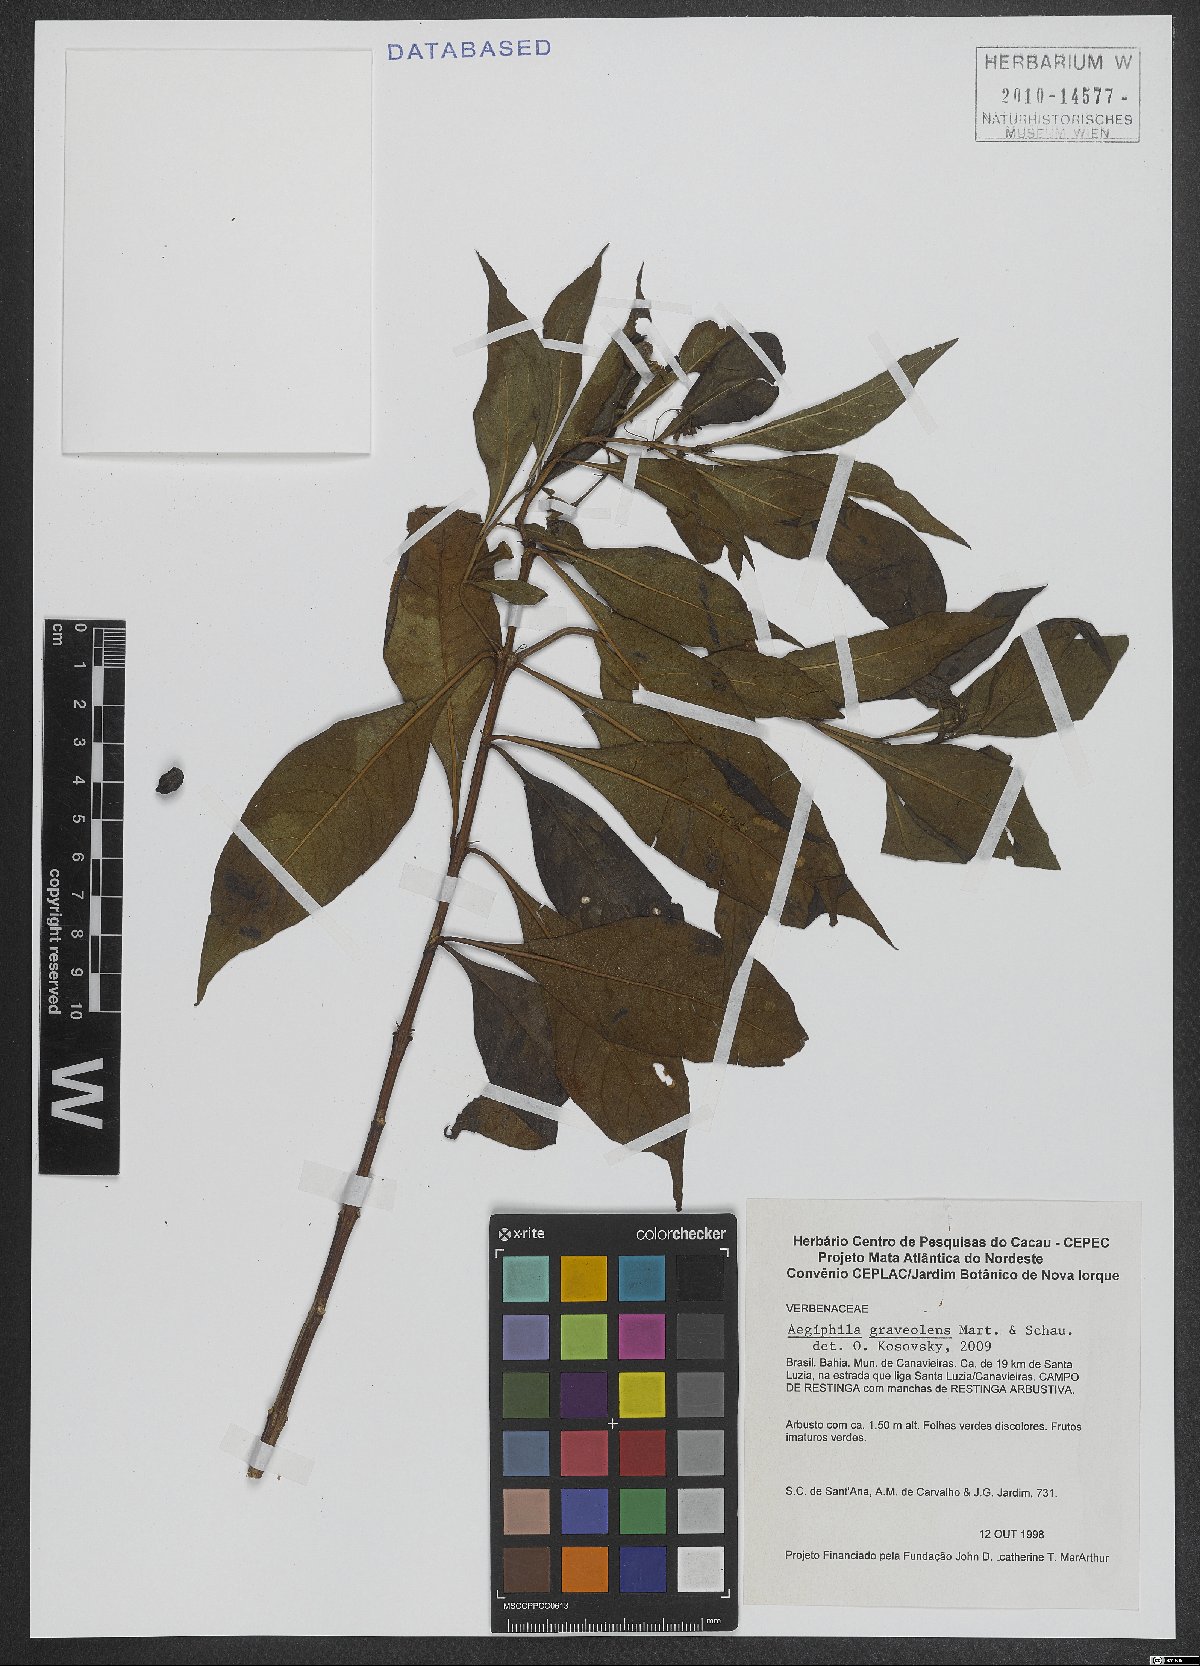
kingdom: Plantae
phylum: Tracheophyta
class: Magnoliopsida
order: Lamiales
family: Lamiaceae
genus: Aegiphila
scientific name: Aegiphila graveolens
